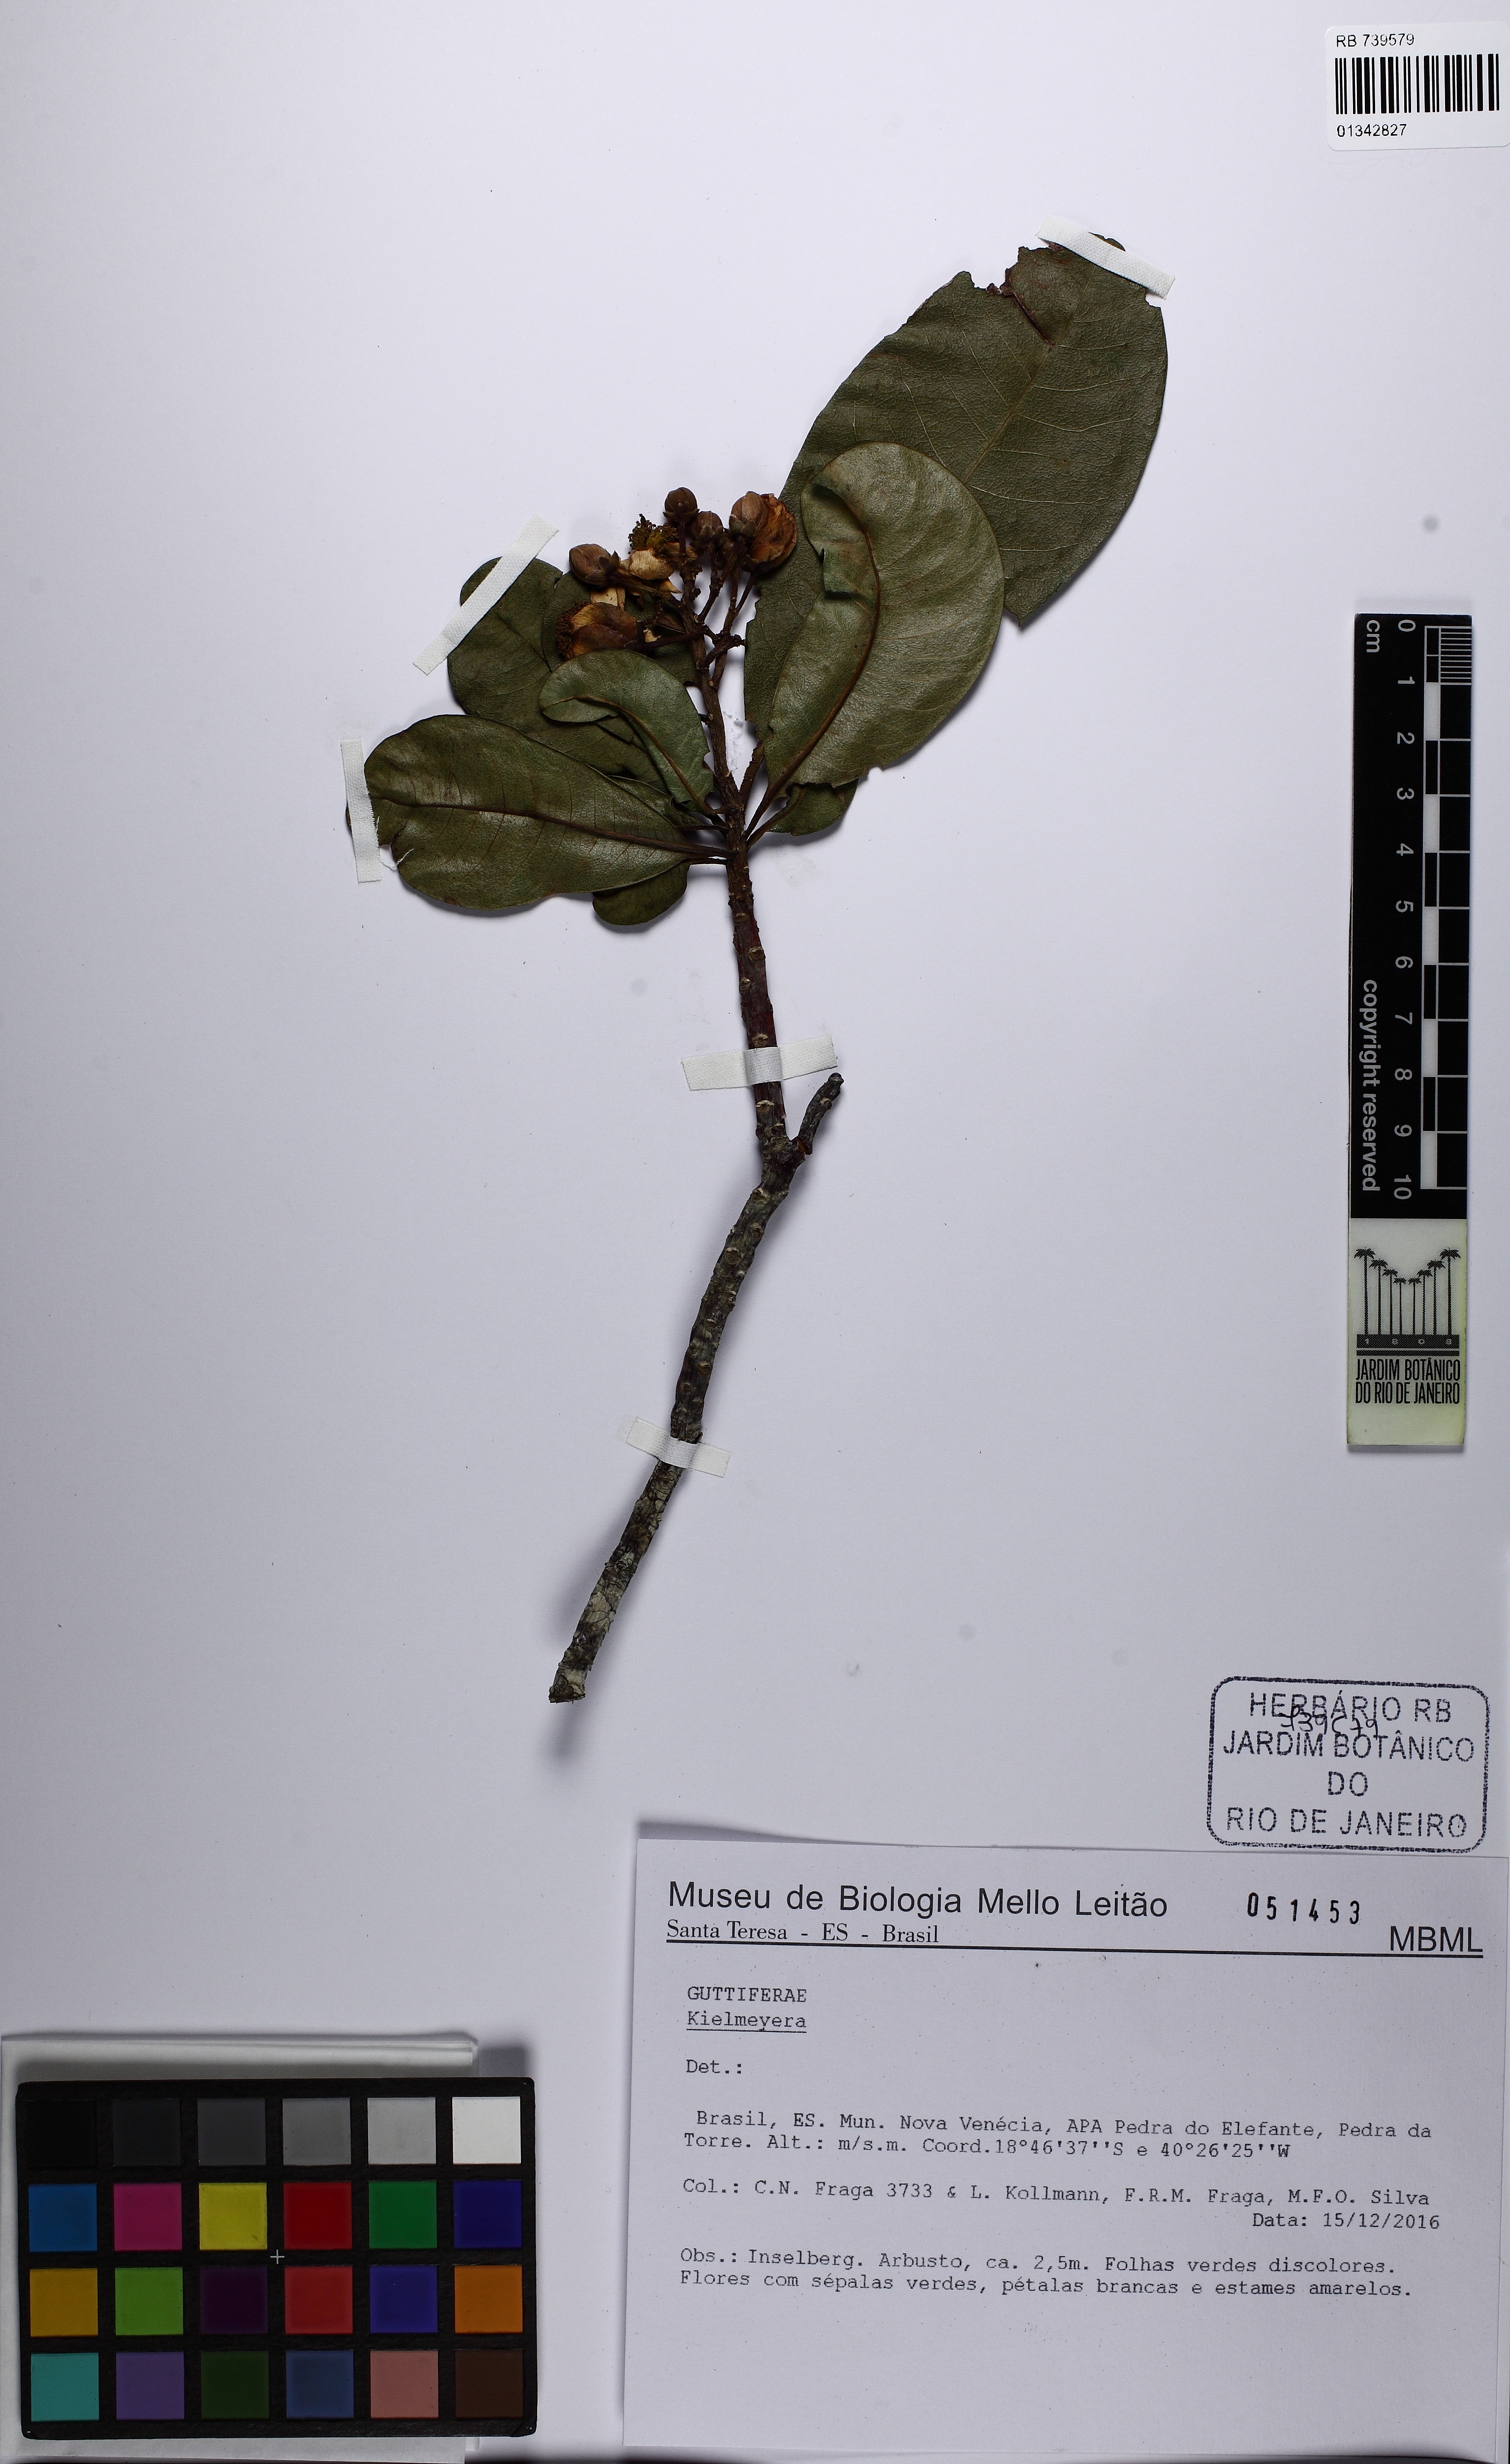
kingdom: Plantae
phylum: Tracheophyta
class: Magnoliopsida
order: Malpighiales
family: Calophyllaceae
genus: Kielmeyera
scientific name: Kielmeyera membranacea
